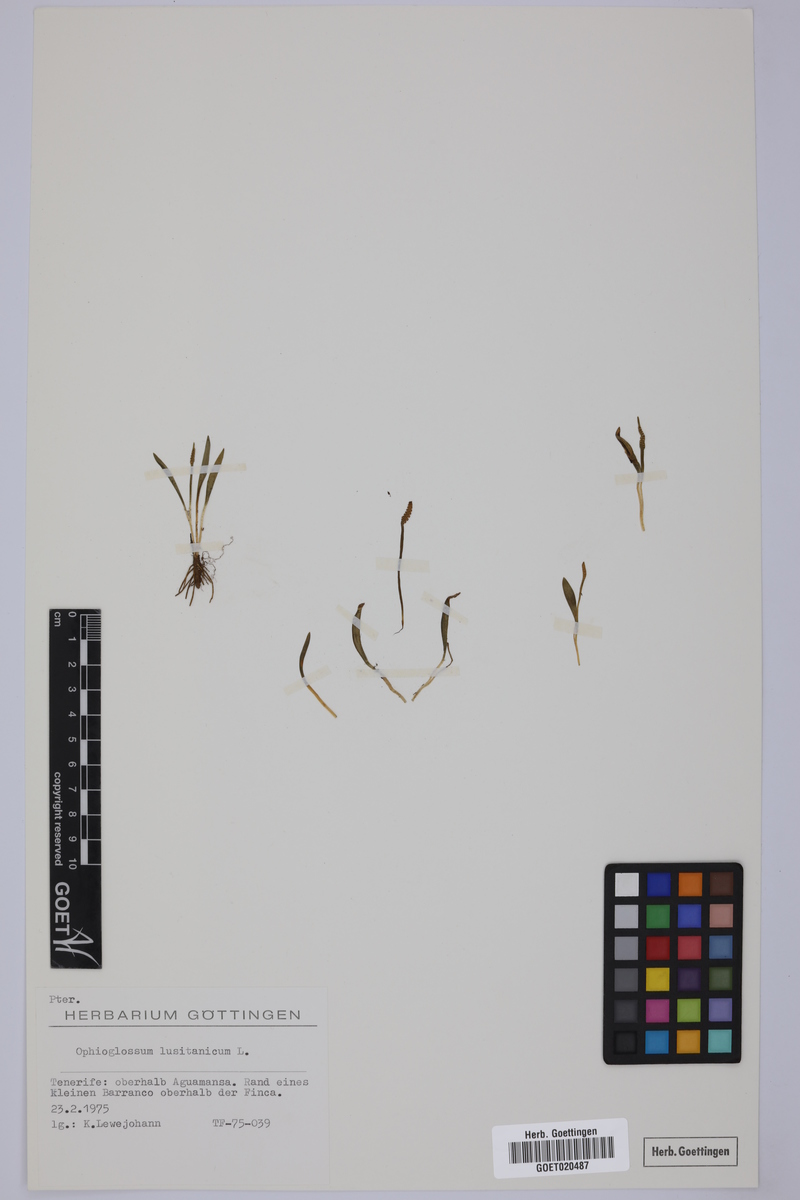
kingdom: Plantae
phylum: Tracheophyta
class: Polypodiopsida
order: Ophioglossales
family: Ophioglossaceae
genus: Ophioglossum
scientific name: Ophioglossum lusitanicum
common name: Least adder's-tongue
